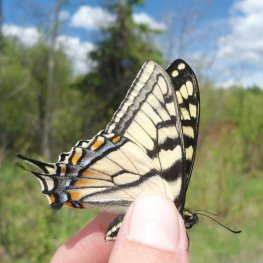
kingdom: Animalia
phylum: Arthropoda
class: Insecta
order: Lepidoptera
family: Papilionidae
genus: Pterourus
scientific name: Pterourus canadensis
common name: Canadian Tiger Swallowtail
